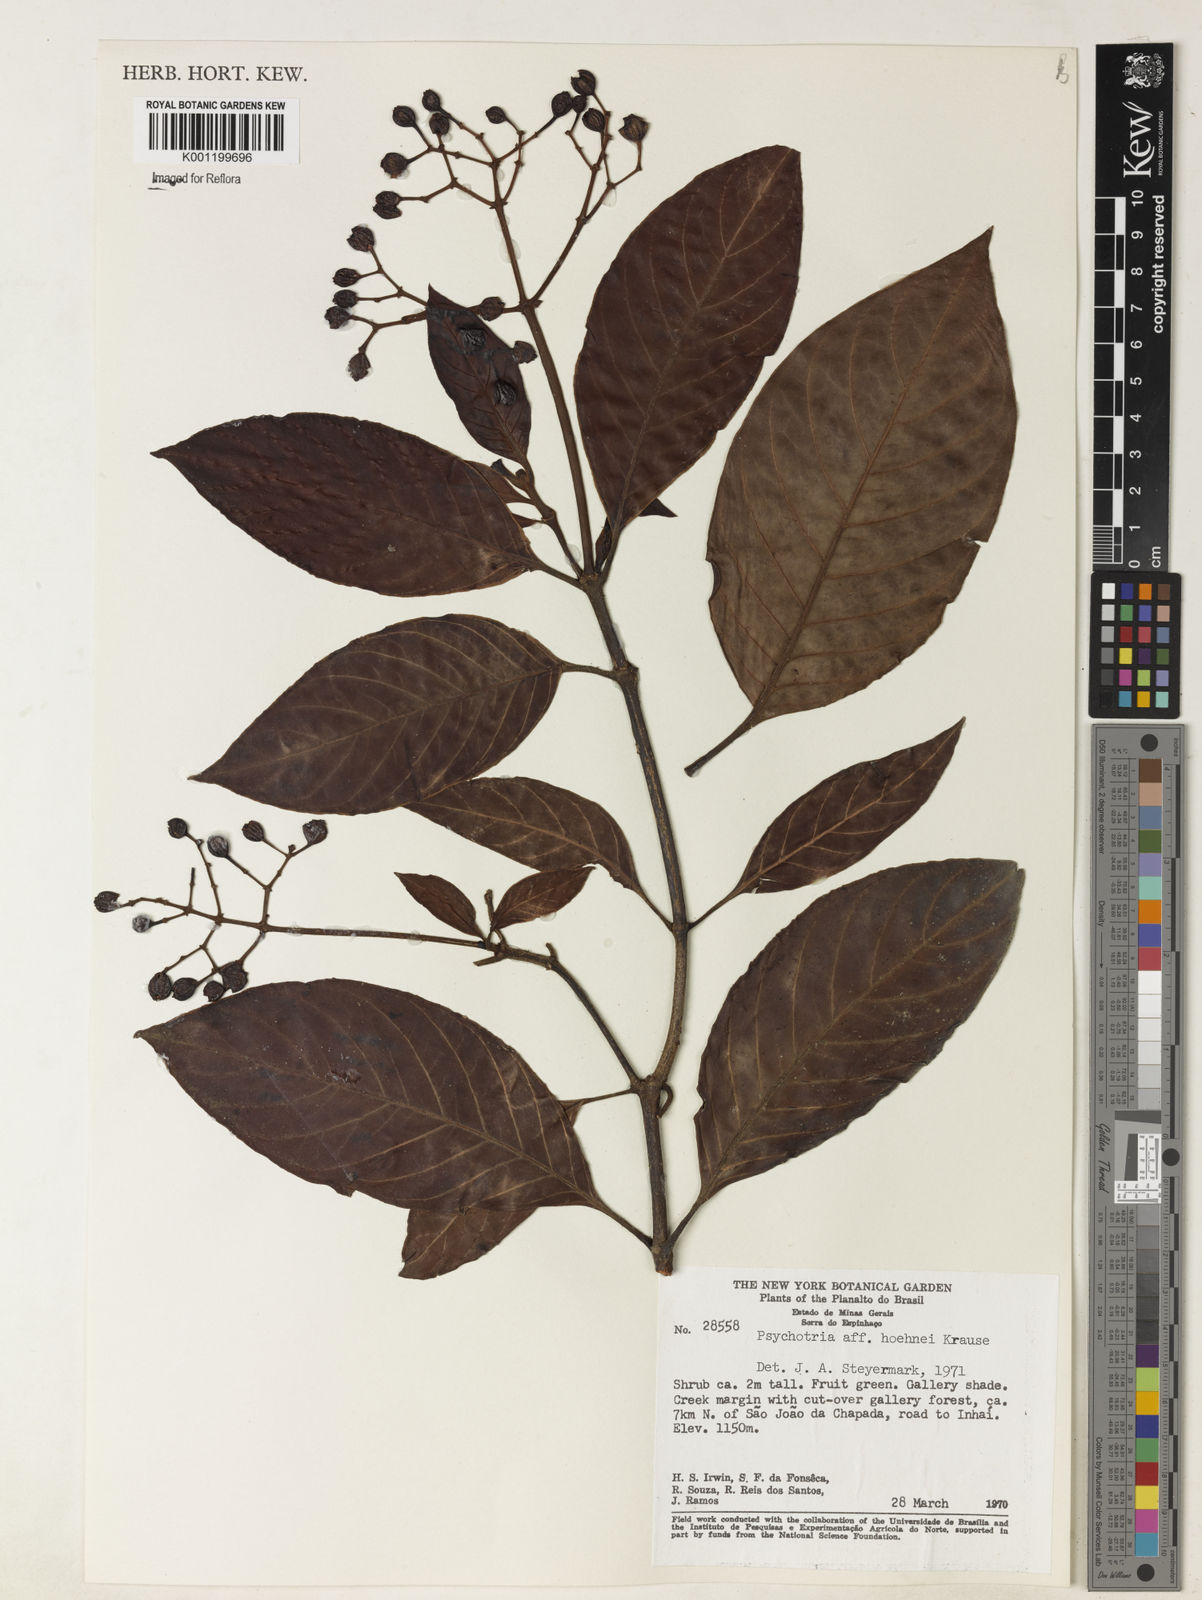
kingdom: Plantae
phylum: Tracheophyta
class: Magnoliopsida
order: Gentianales
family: Rubiaceae
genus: Psychotria
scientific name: Psychotria nemorosa
